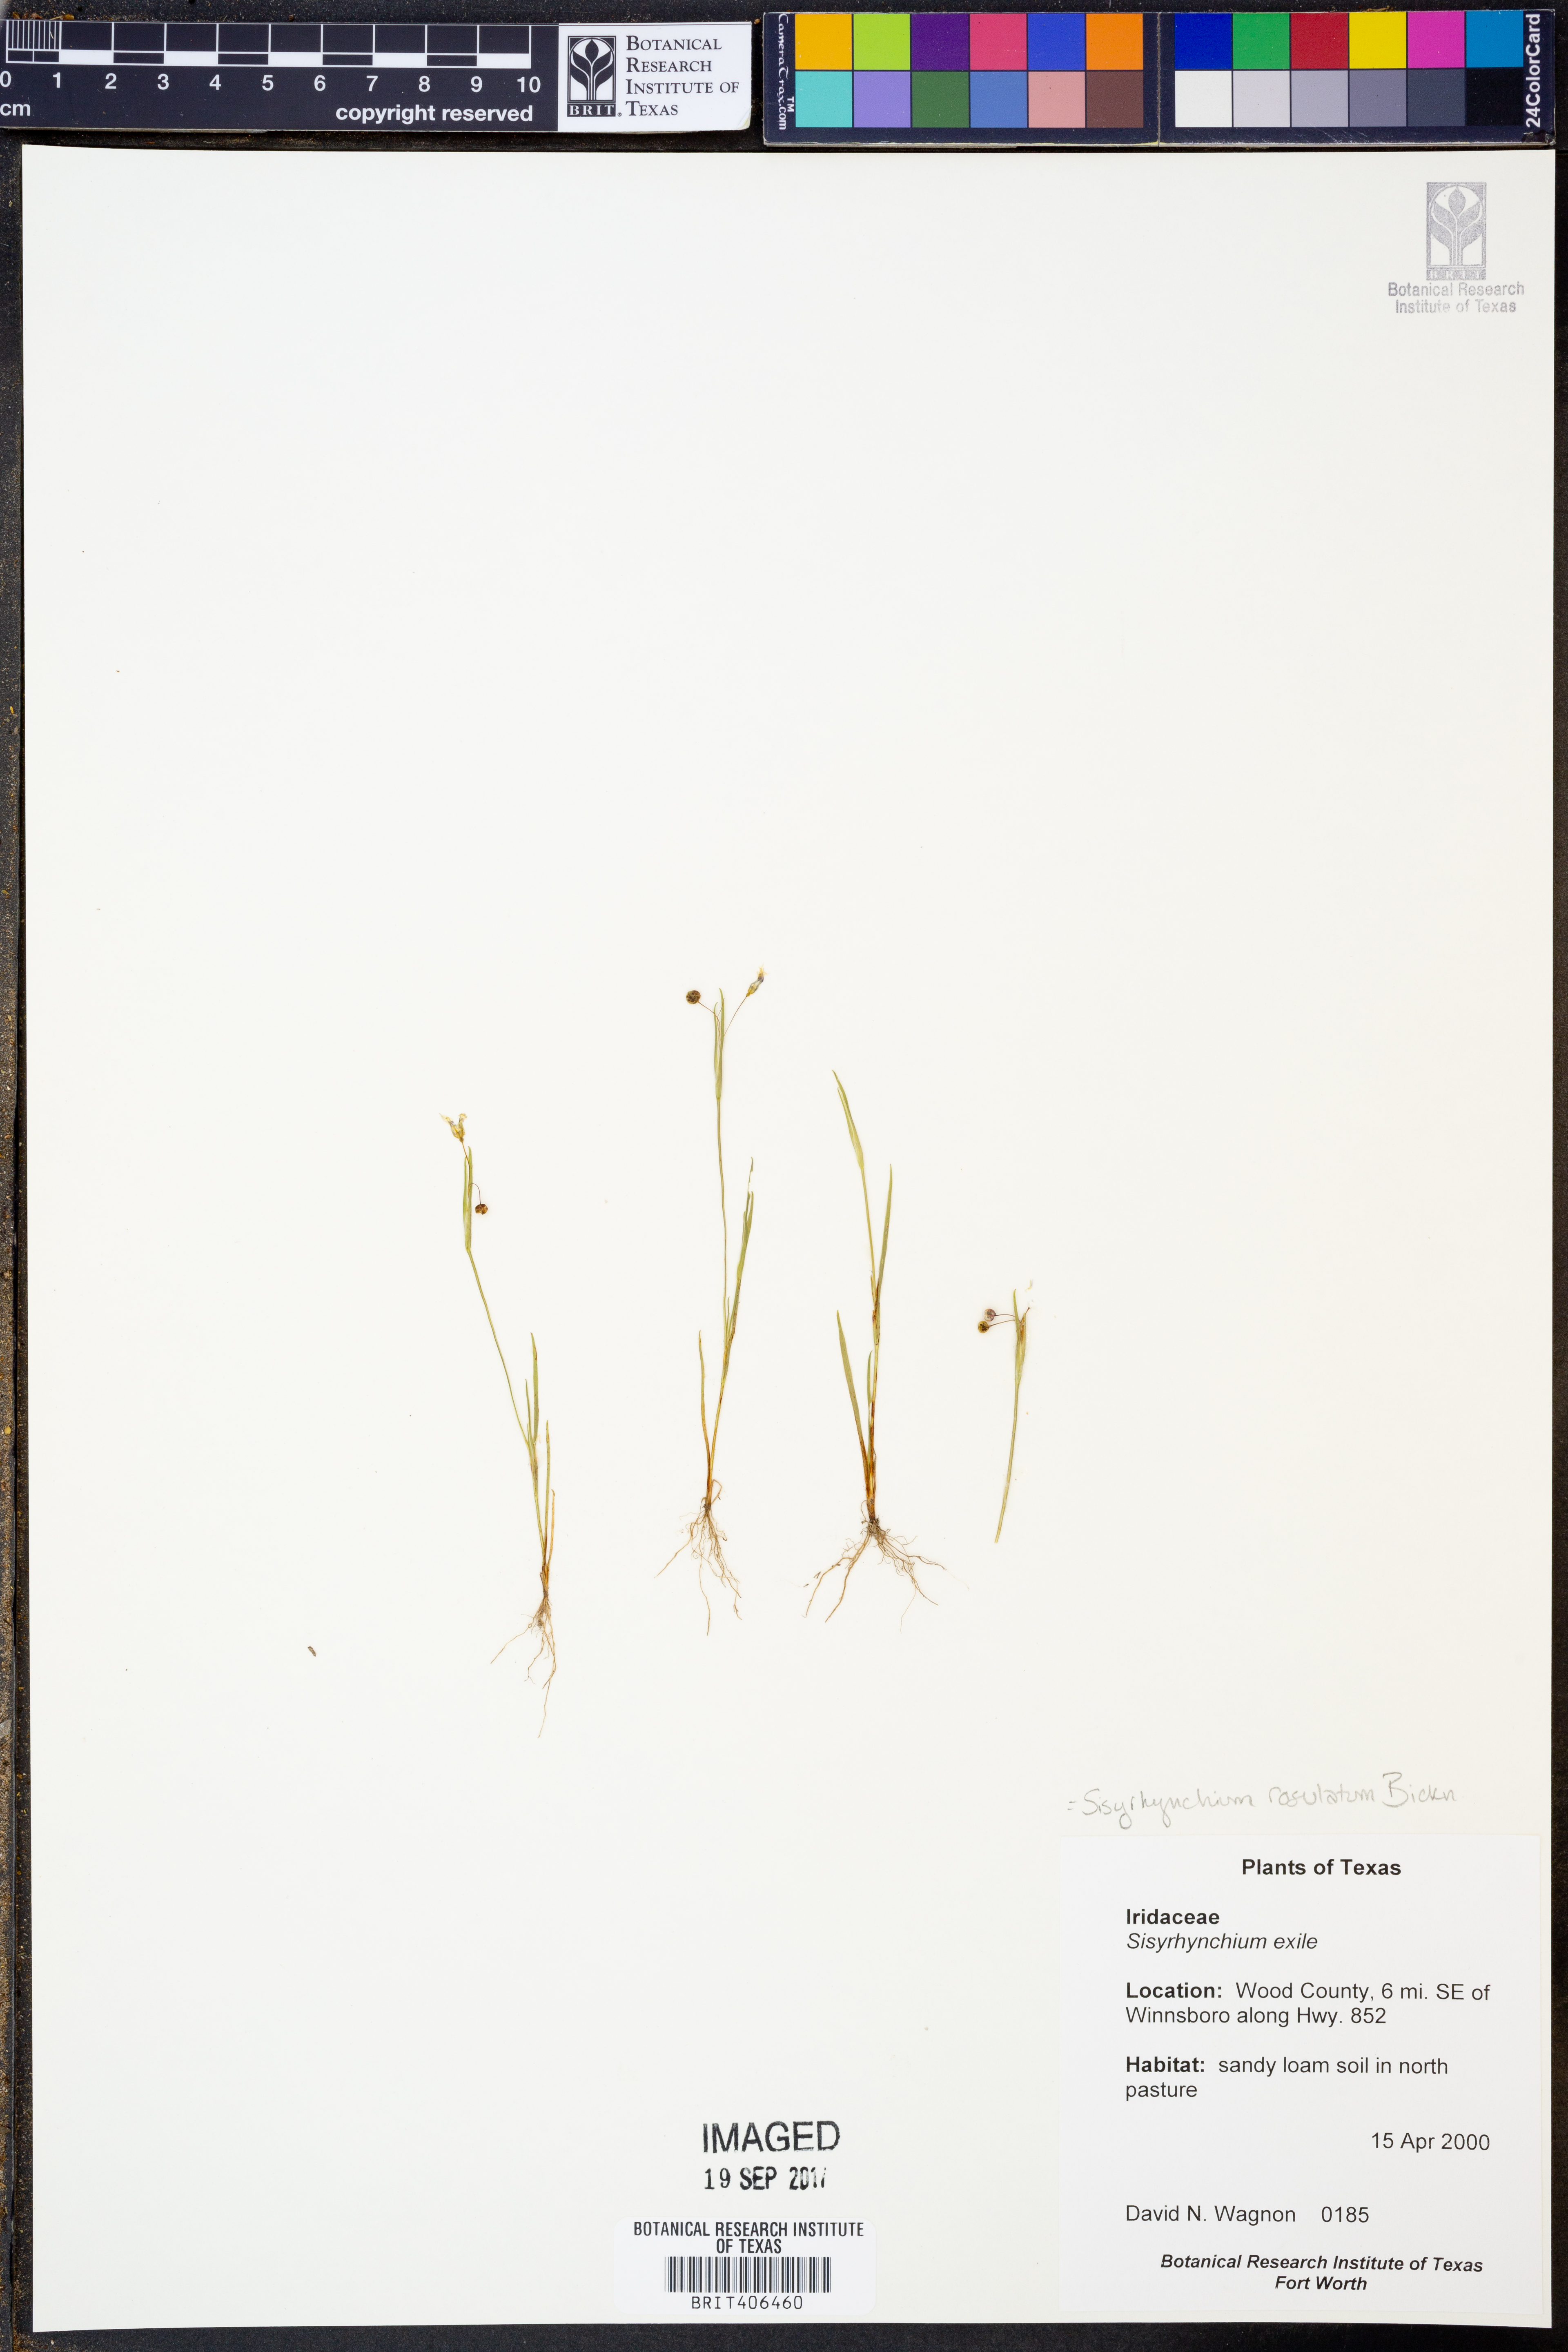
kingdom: Plantae
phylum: Tracheophyta
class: Liliopsida
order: Asparagales
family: Iridaceae
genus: Sisyrinchium
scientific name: Sisyrinchium rosulatum
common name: Annual blue-eyed grass
